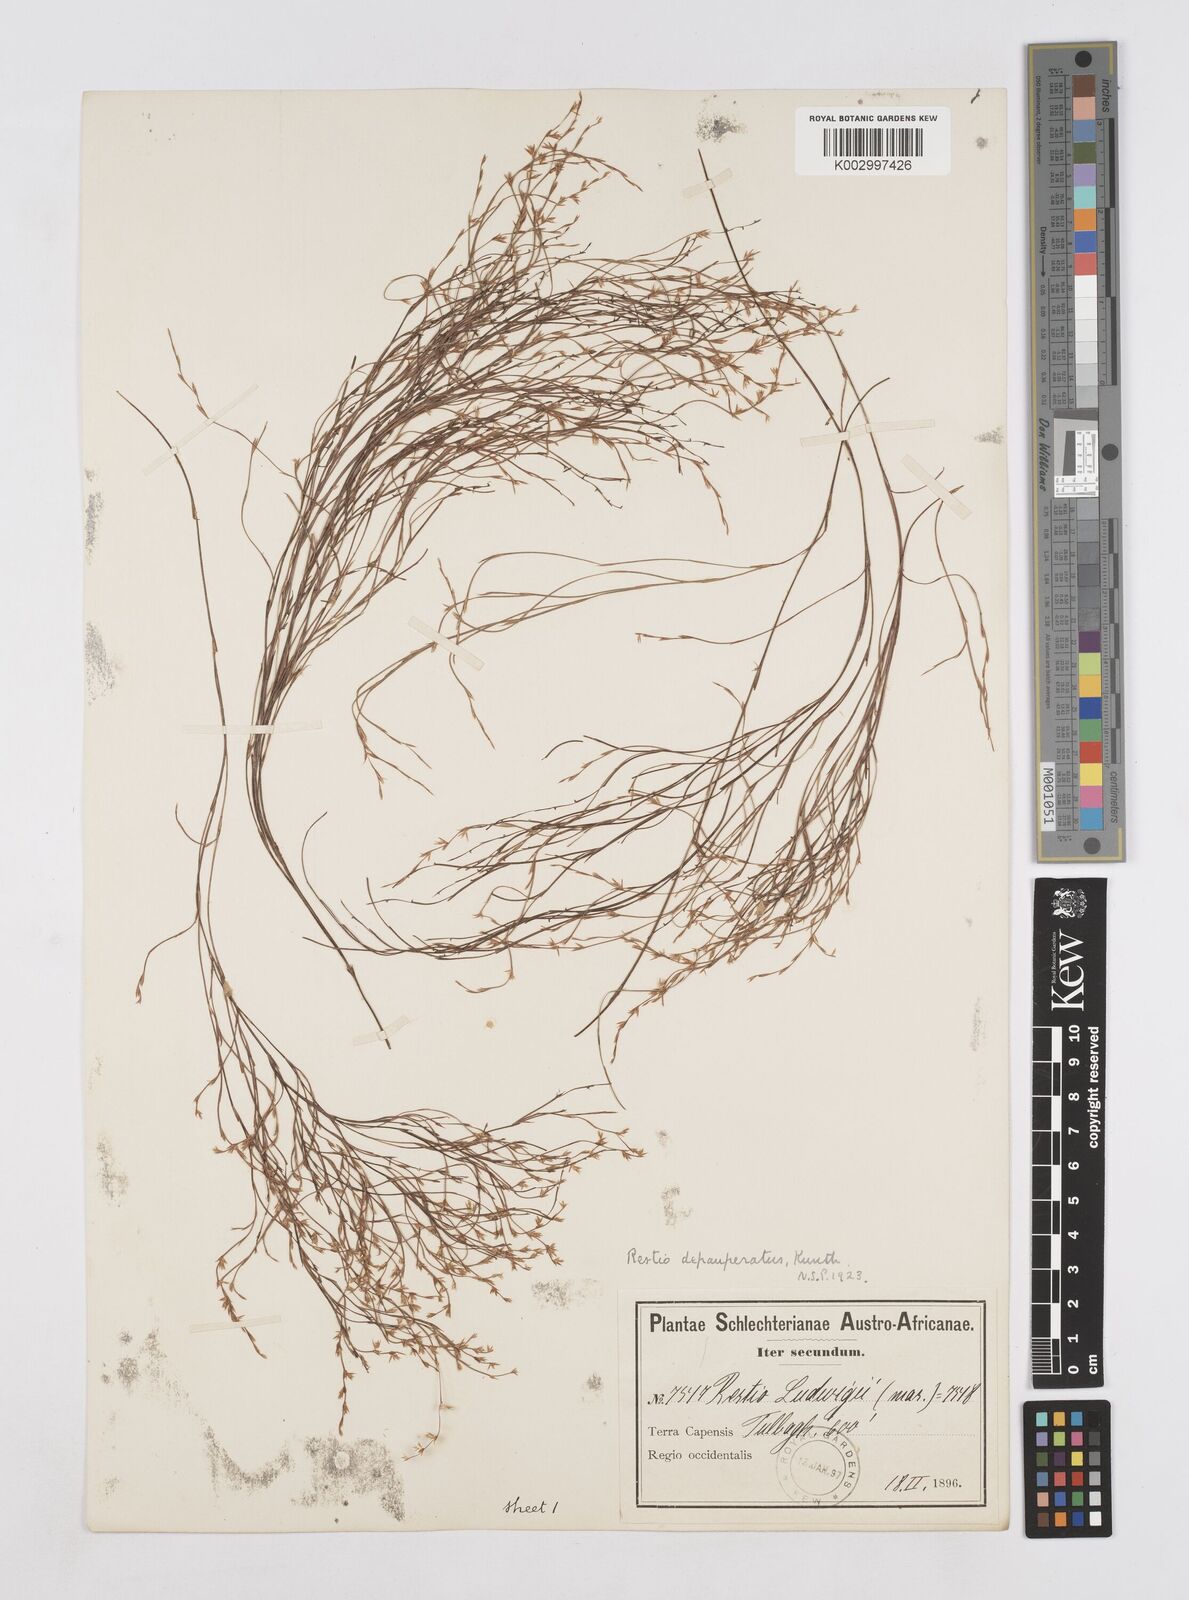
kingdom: Plantae
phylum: Tracheophyta
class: Liliopsida
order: Poales
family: Restionaceae
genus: Platycaulos
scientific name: Platycaulos depauperatus
